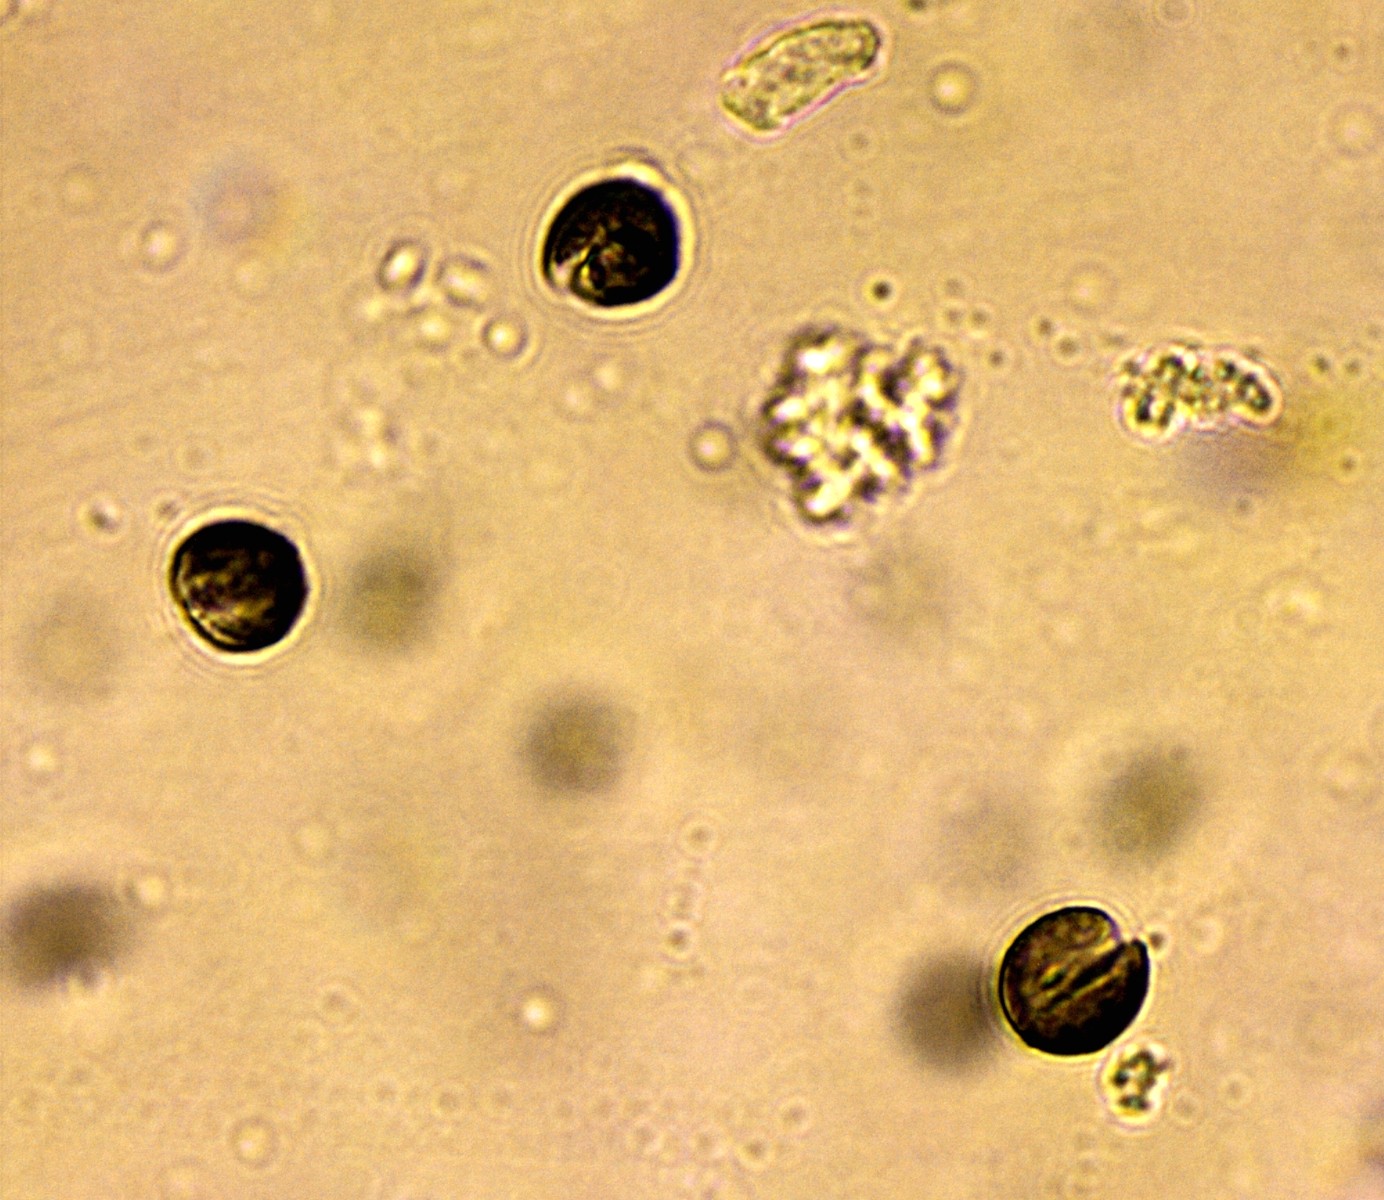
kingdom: Protozoa
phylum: Mycetozoa
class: Myxomycetes
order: Physarales
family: Physaraceae
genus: Fuligo
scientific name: Fuligo luteonitens
